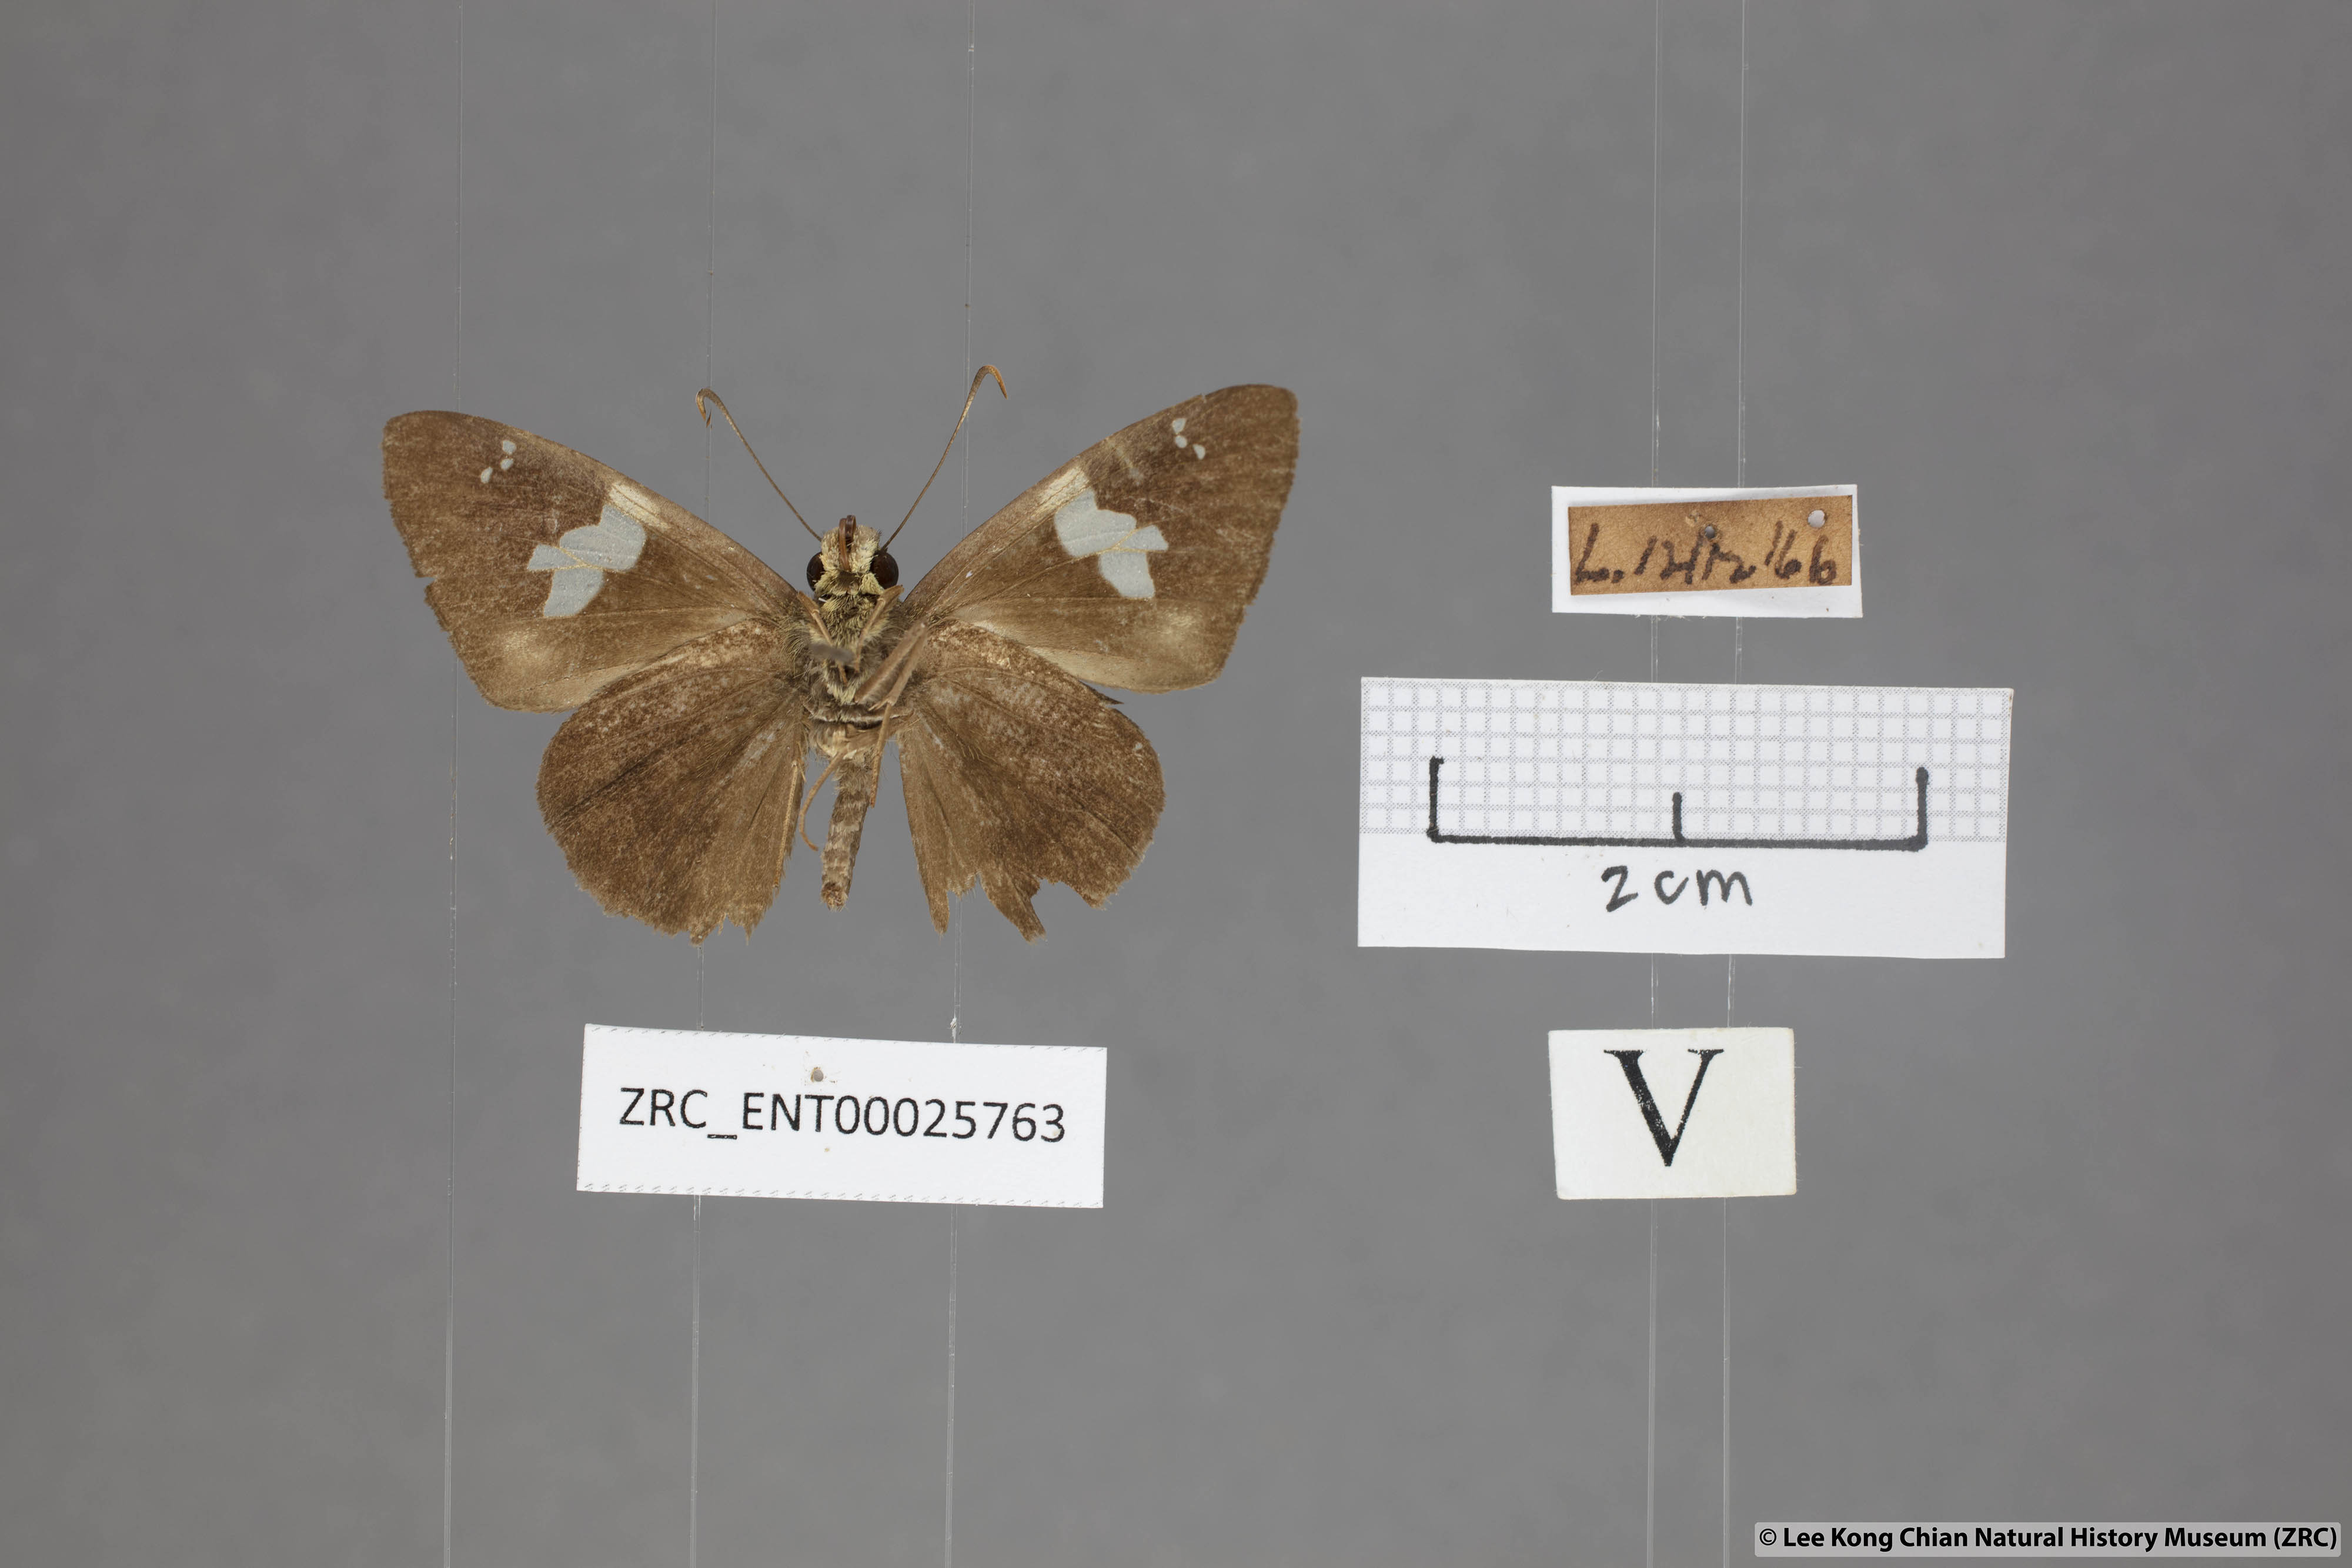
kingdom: Animalia
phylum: Arthropoda
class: Insecta
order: Lepidoptera
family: Hesperiidae
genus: Celaenorrhinus
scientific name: Celaenorrhinus asmara
